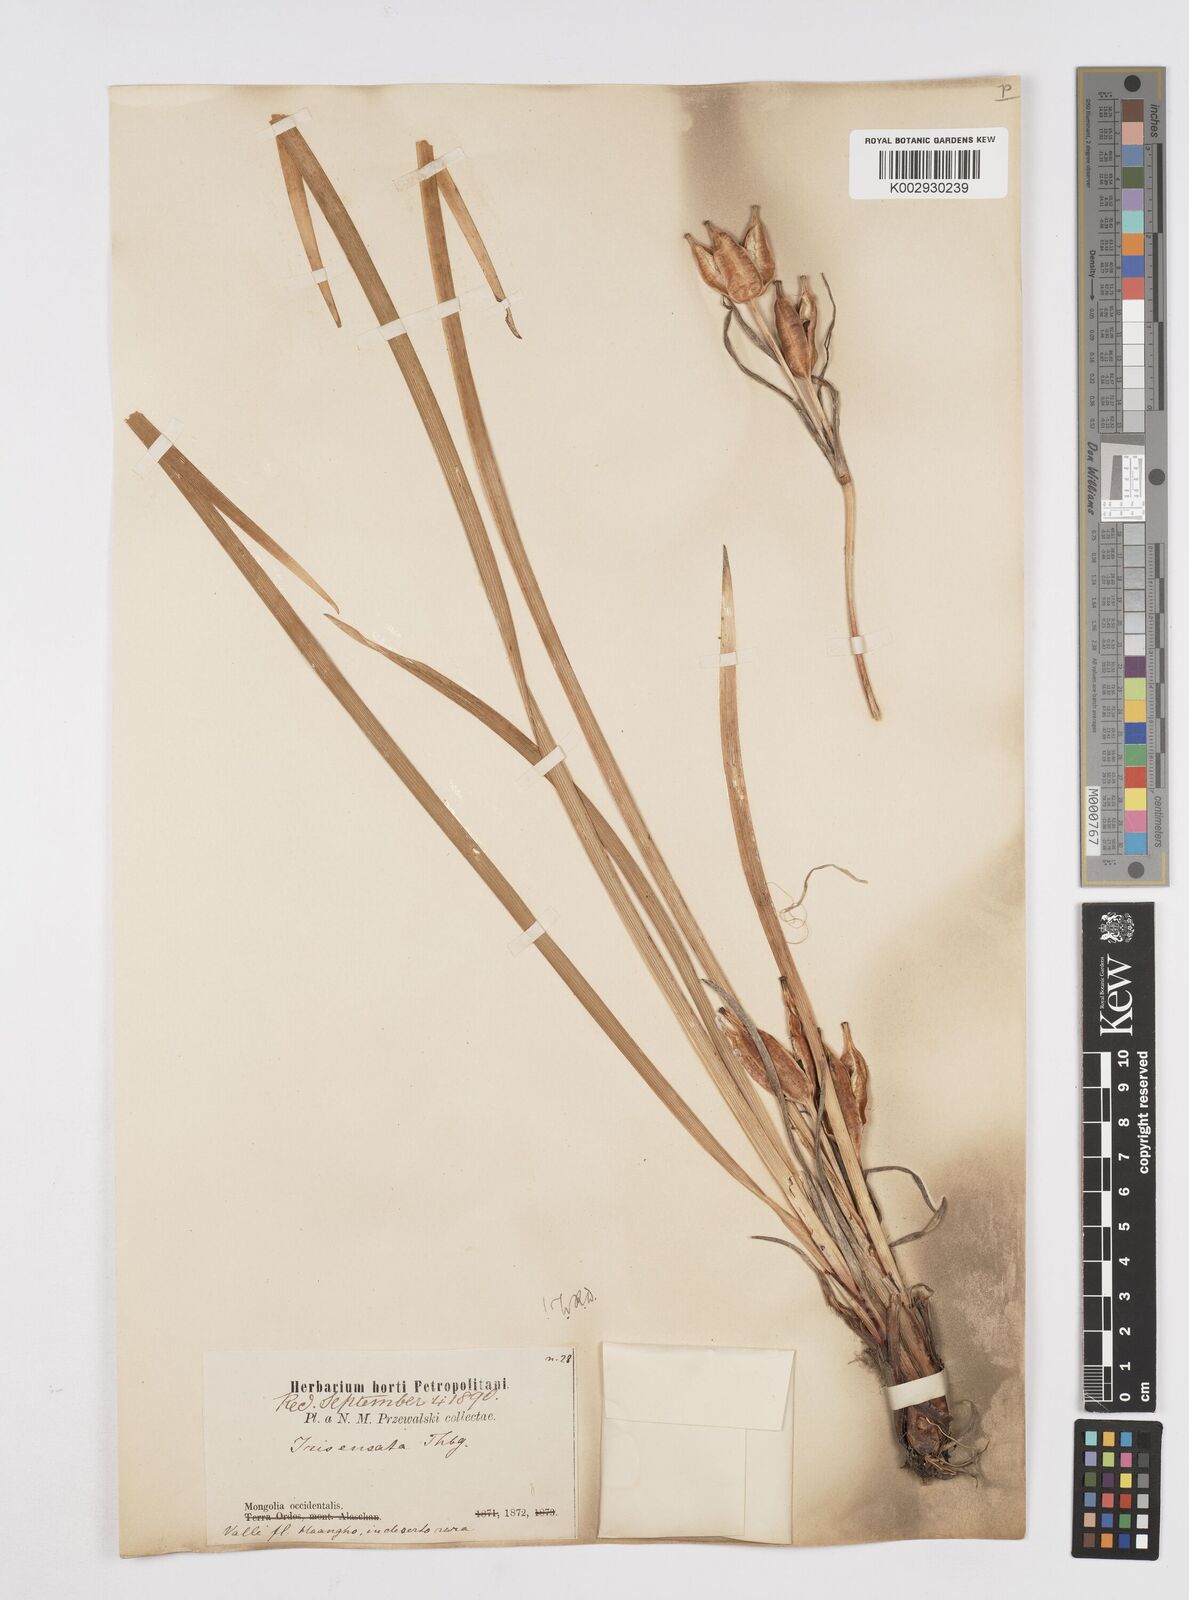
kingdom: Plantae
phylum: Tracheophyta
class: Liliopsida
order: Asparagales
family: Iridaceae
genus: Iris
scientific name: Iris lactea
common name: White-flower chinese iris
